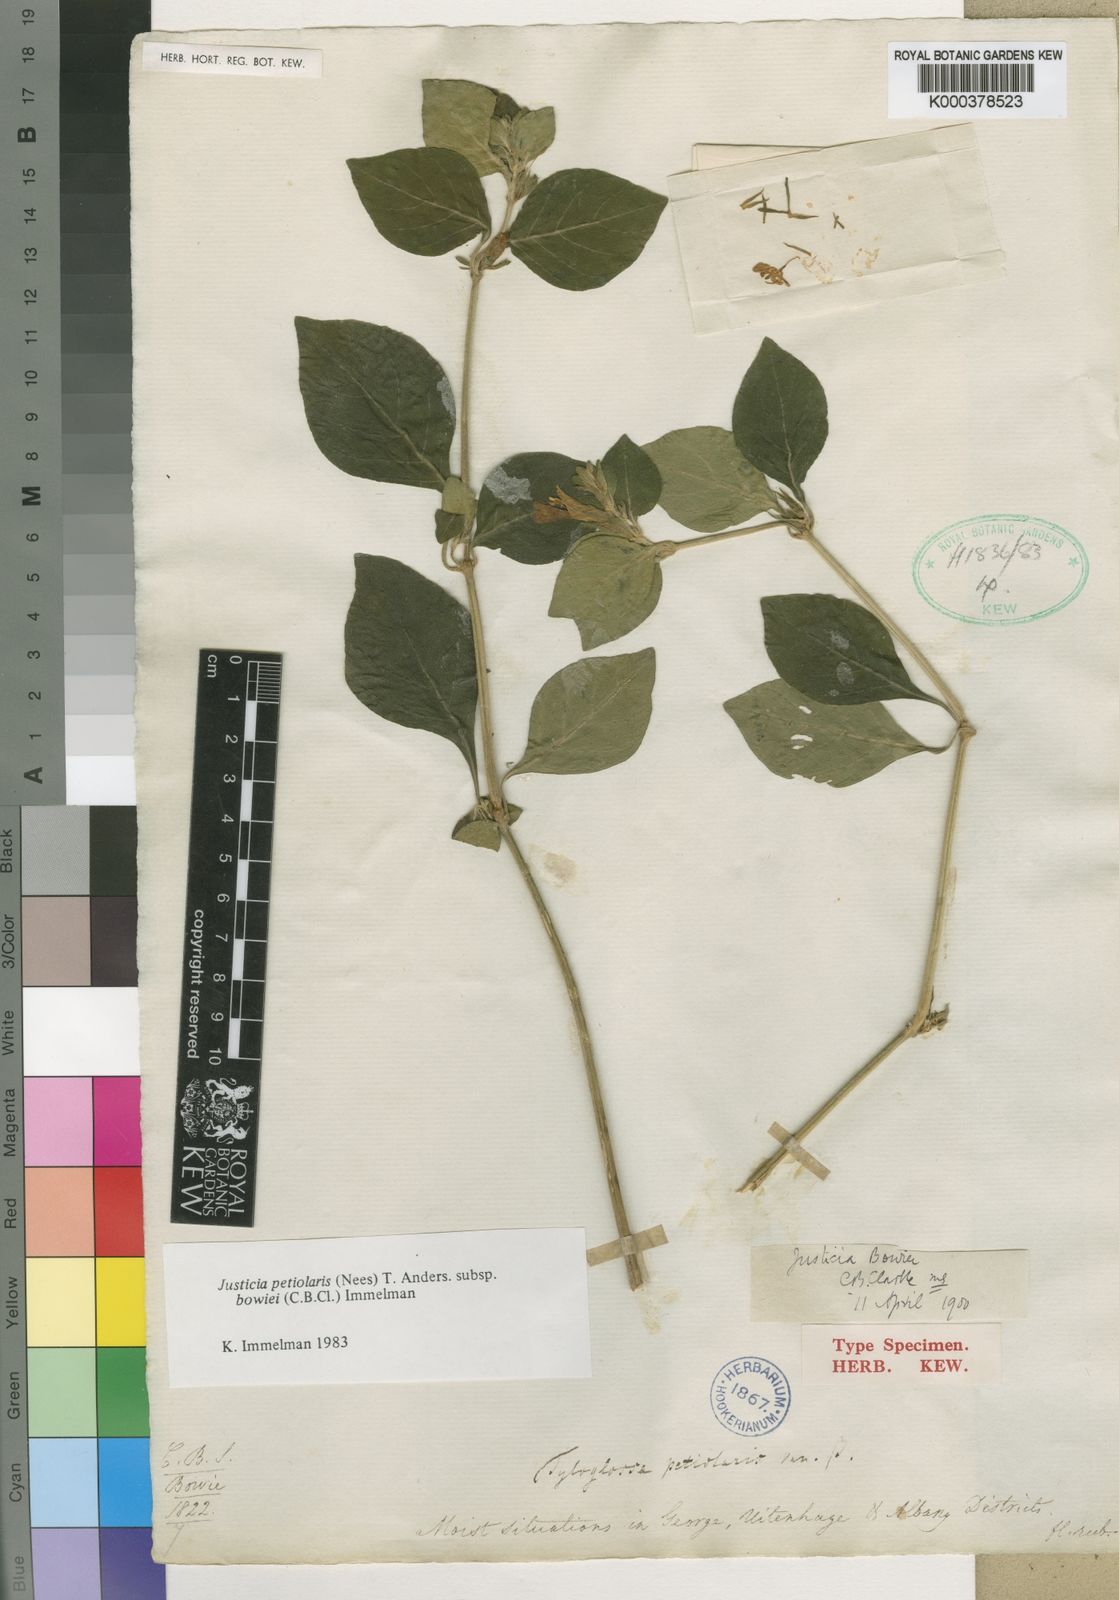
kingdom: Plantae
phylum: Tracheophyta
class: Magnoliopsida
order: Lamiales
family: Acanthaceae
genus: Justicia
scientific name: Justicia petiolaris
